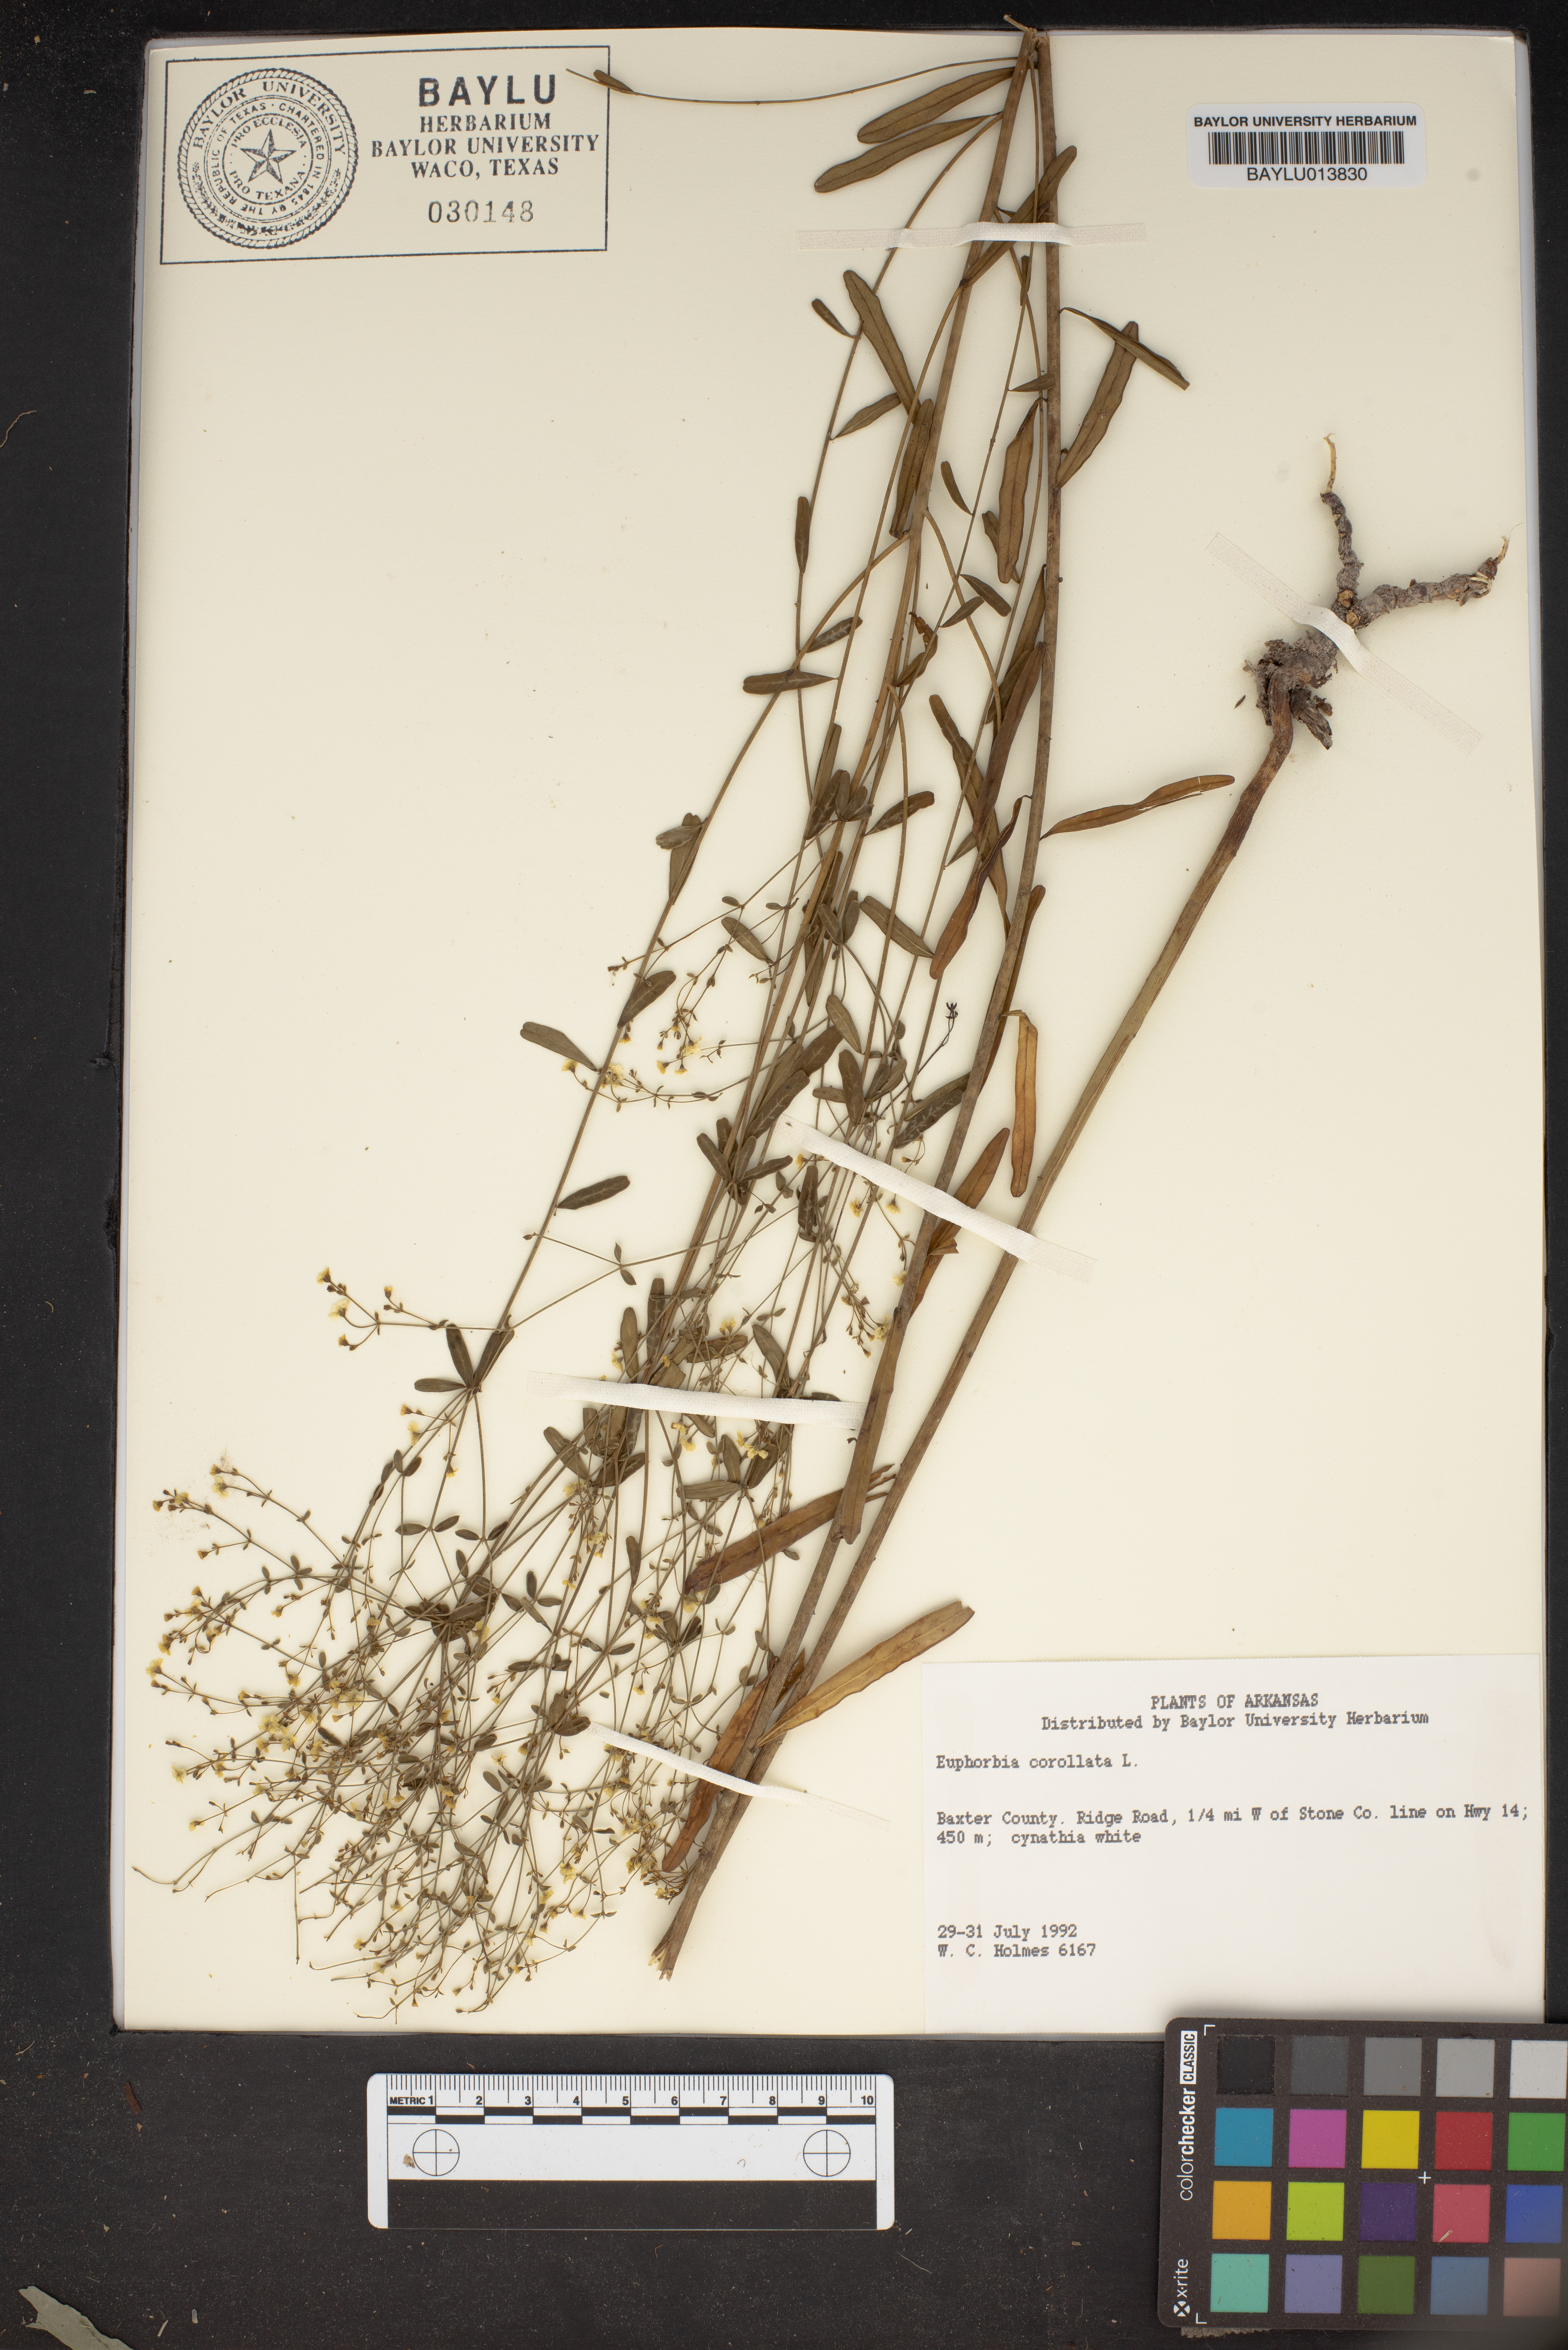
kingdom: Plantae
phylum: Tracheophyta
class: Magnoliopsida
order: Malpighiales
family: Euphorbiaceae
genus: Euphorbia
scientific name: Euphorbia corollata
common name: Flowering spurge
